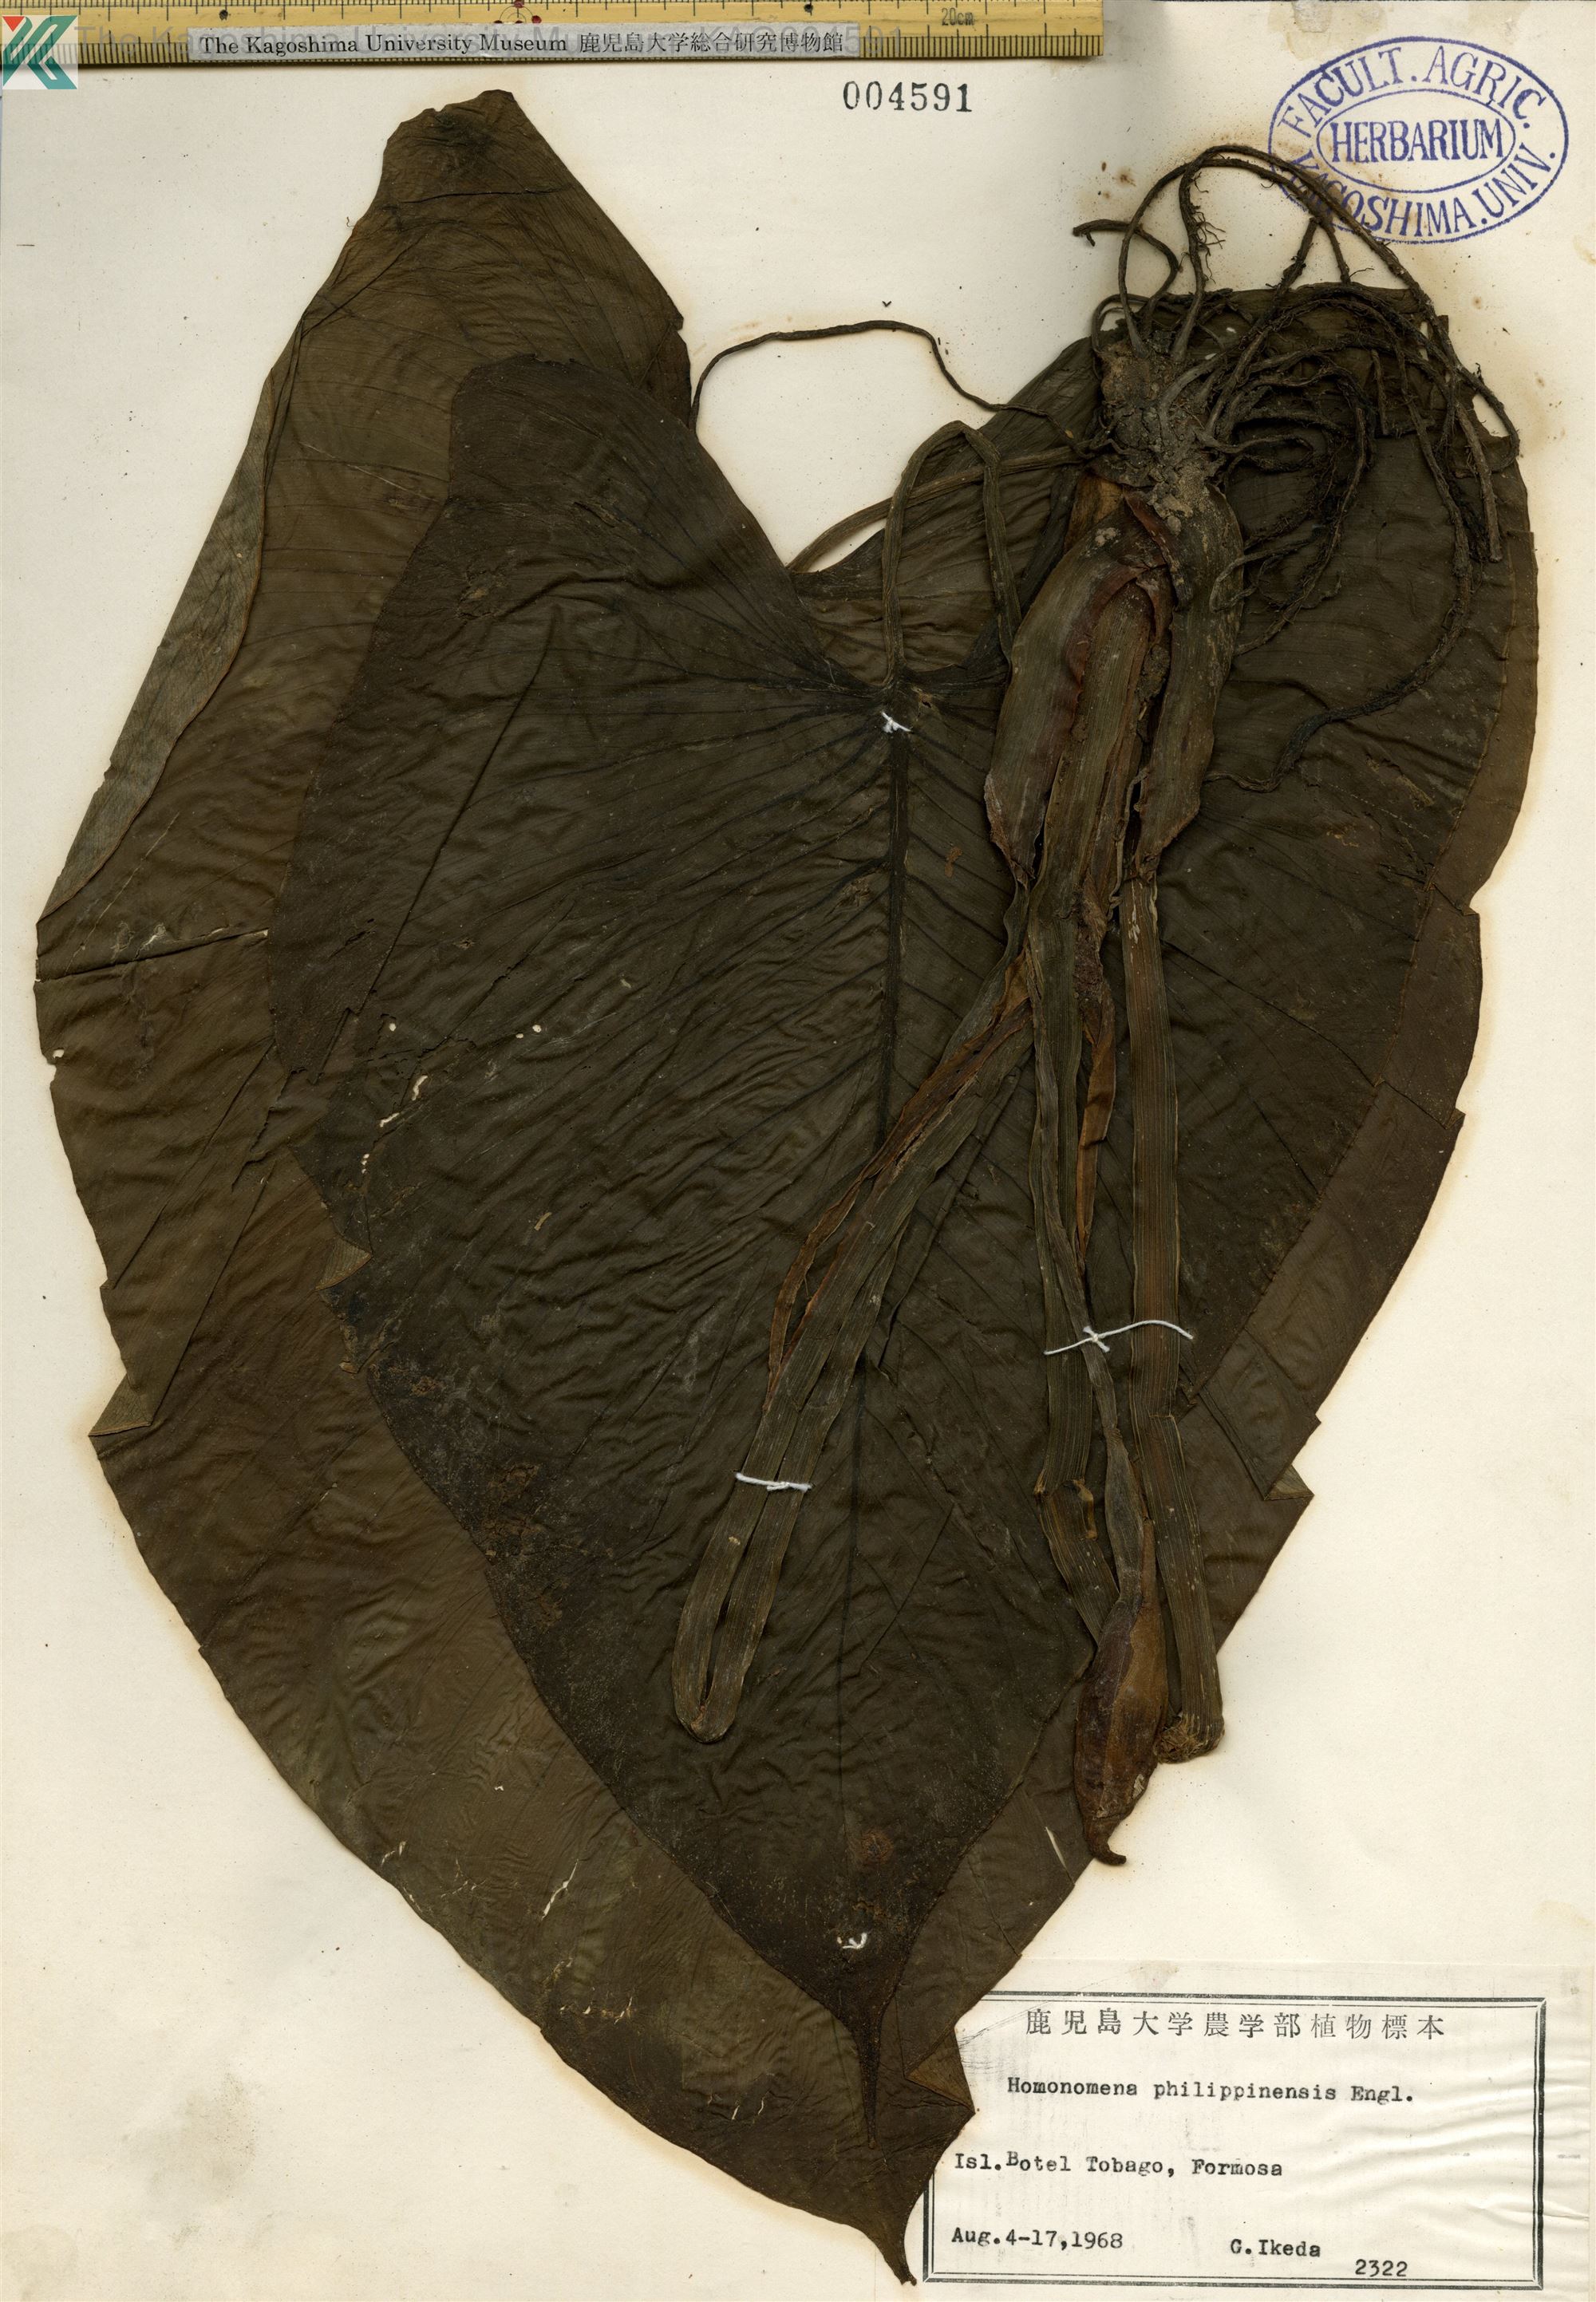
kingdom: Plantae
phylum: Tracheophyta
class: Liliopsida
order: Alismatales
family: Araceae
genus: Homalomena
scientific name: Homalomena philippinensis
